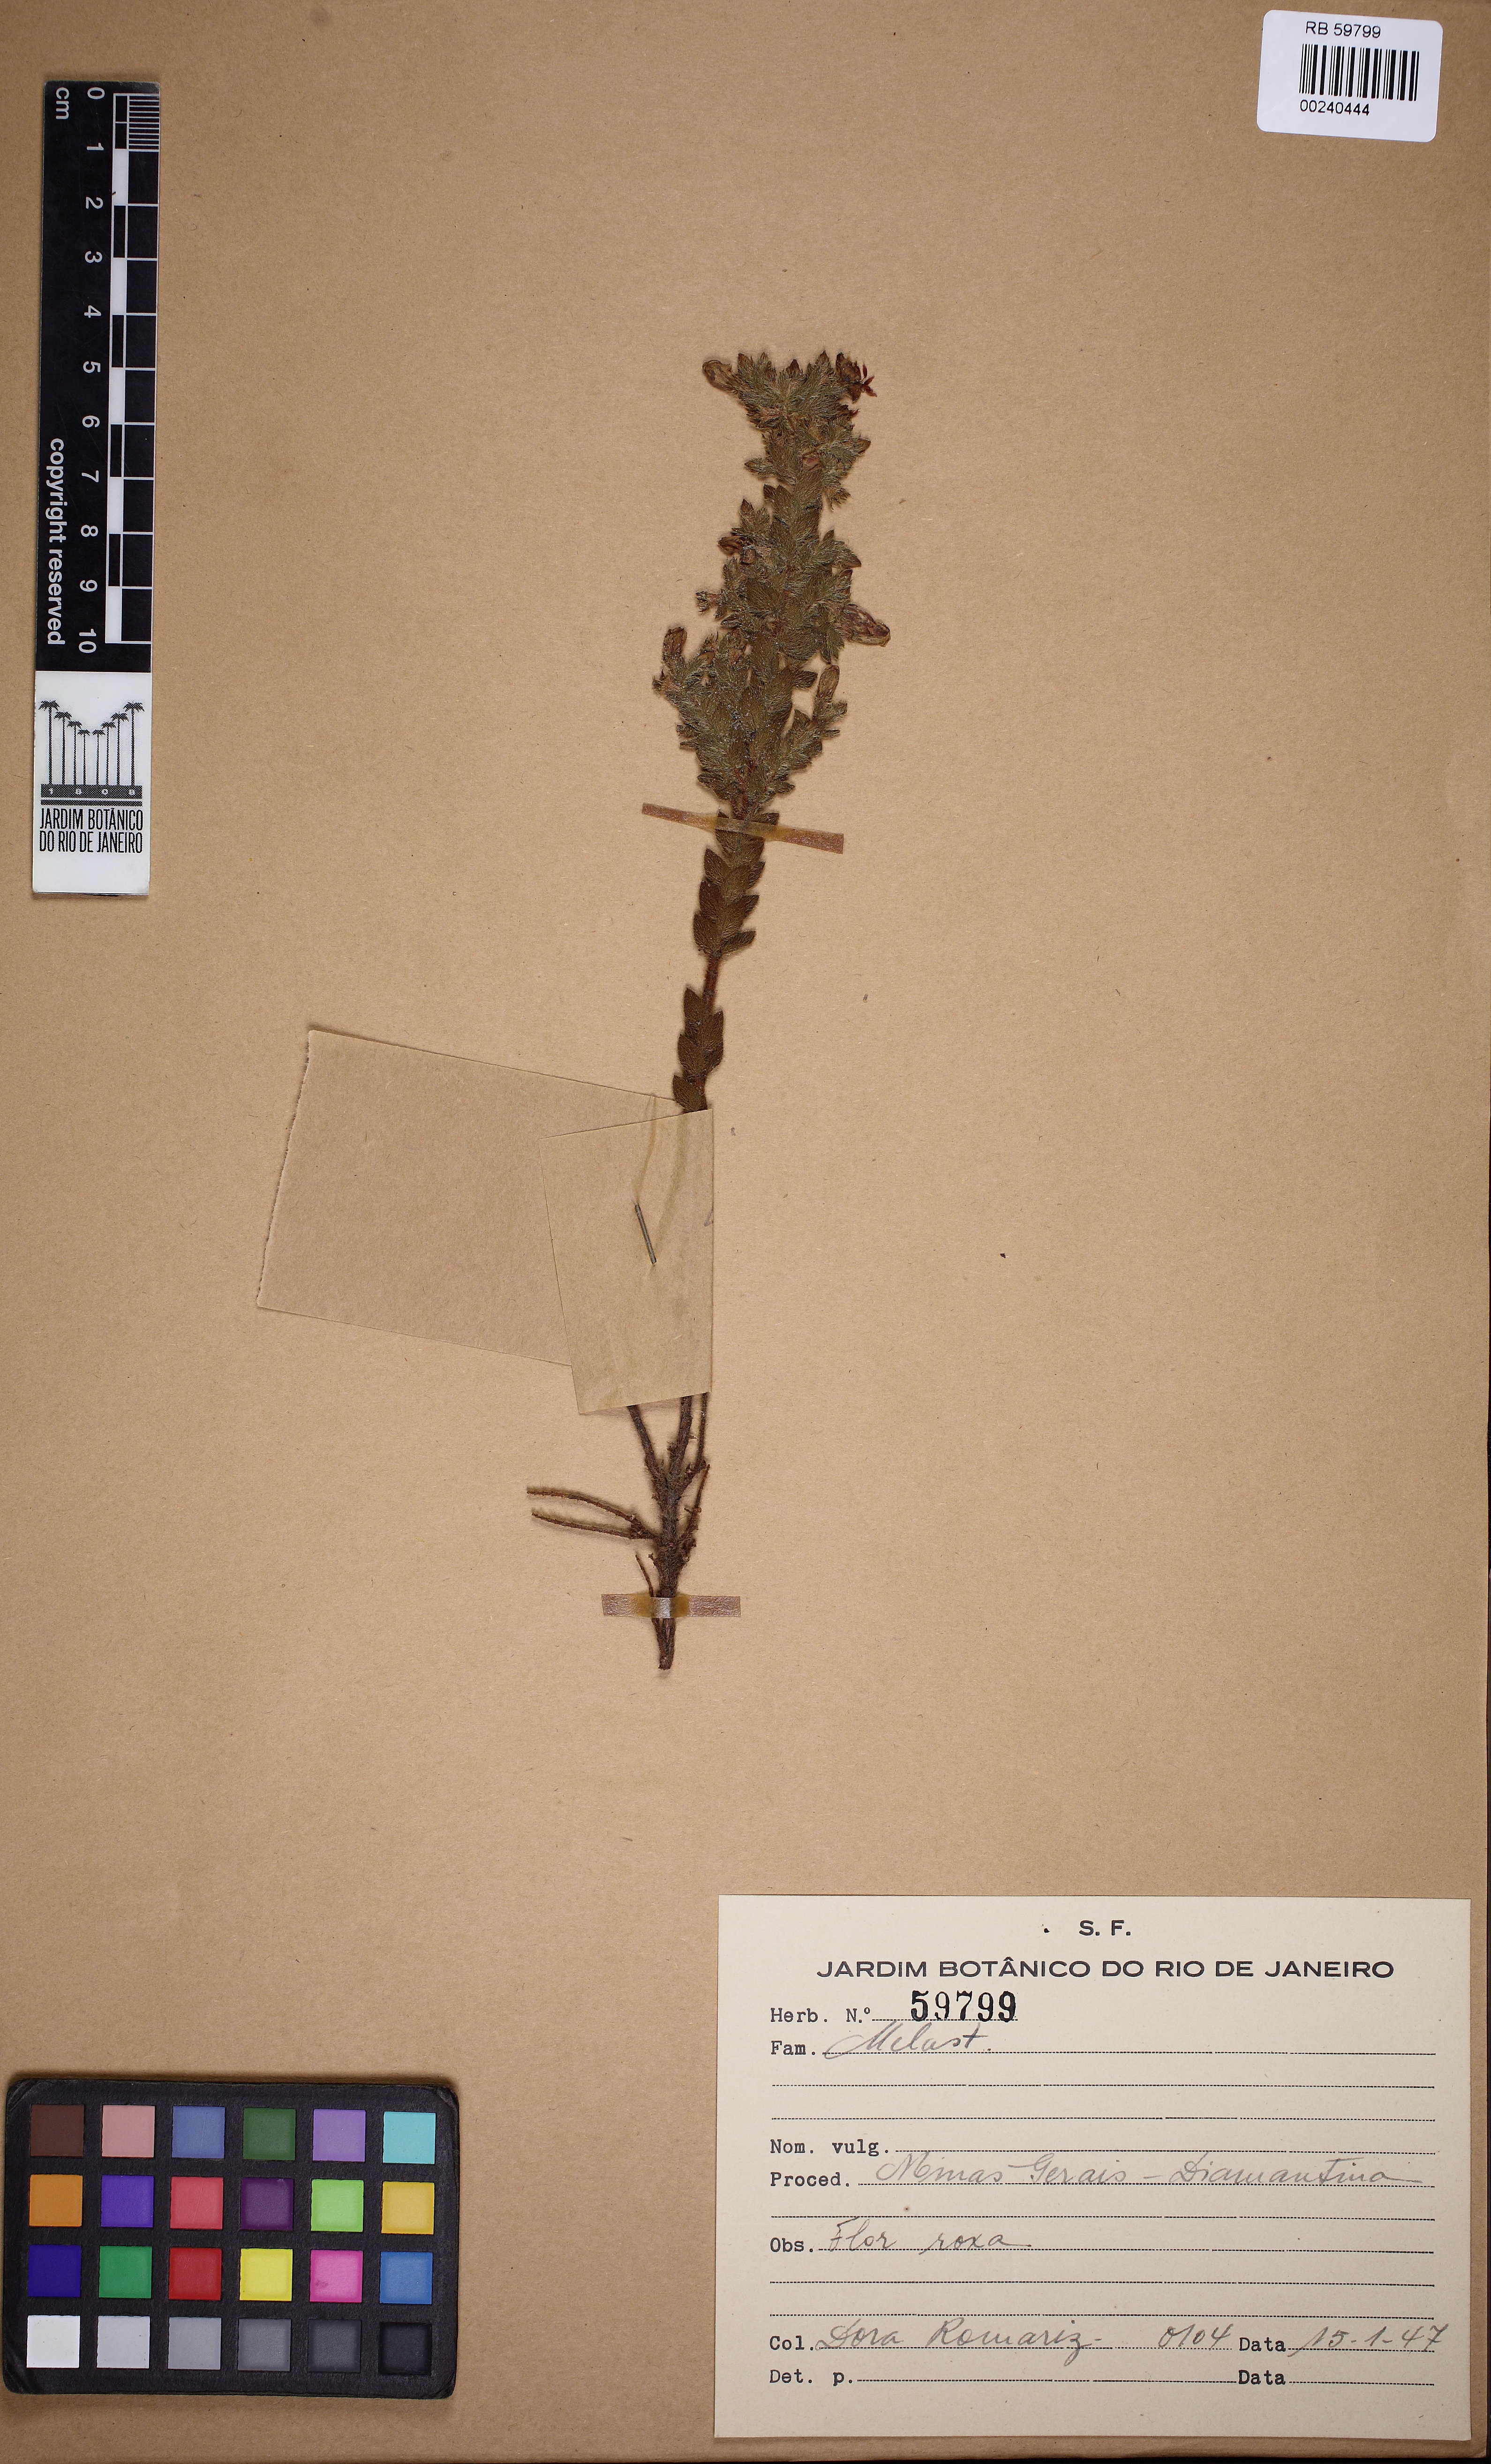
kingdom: Plantae
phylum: Tracheophyta
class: Magnoliopsida
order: Myrtales
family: Melastomataceae
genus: Microlicia
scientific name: Microlicia maximowicziana
